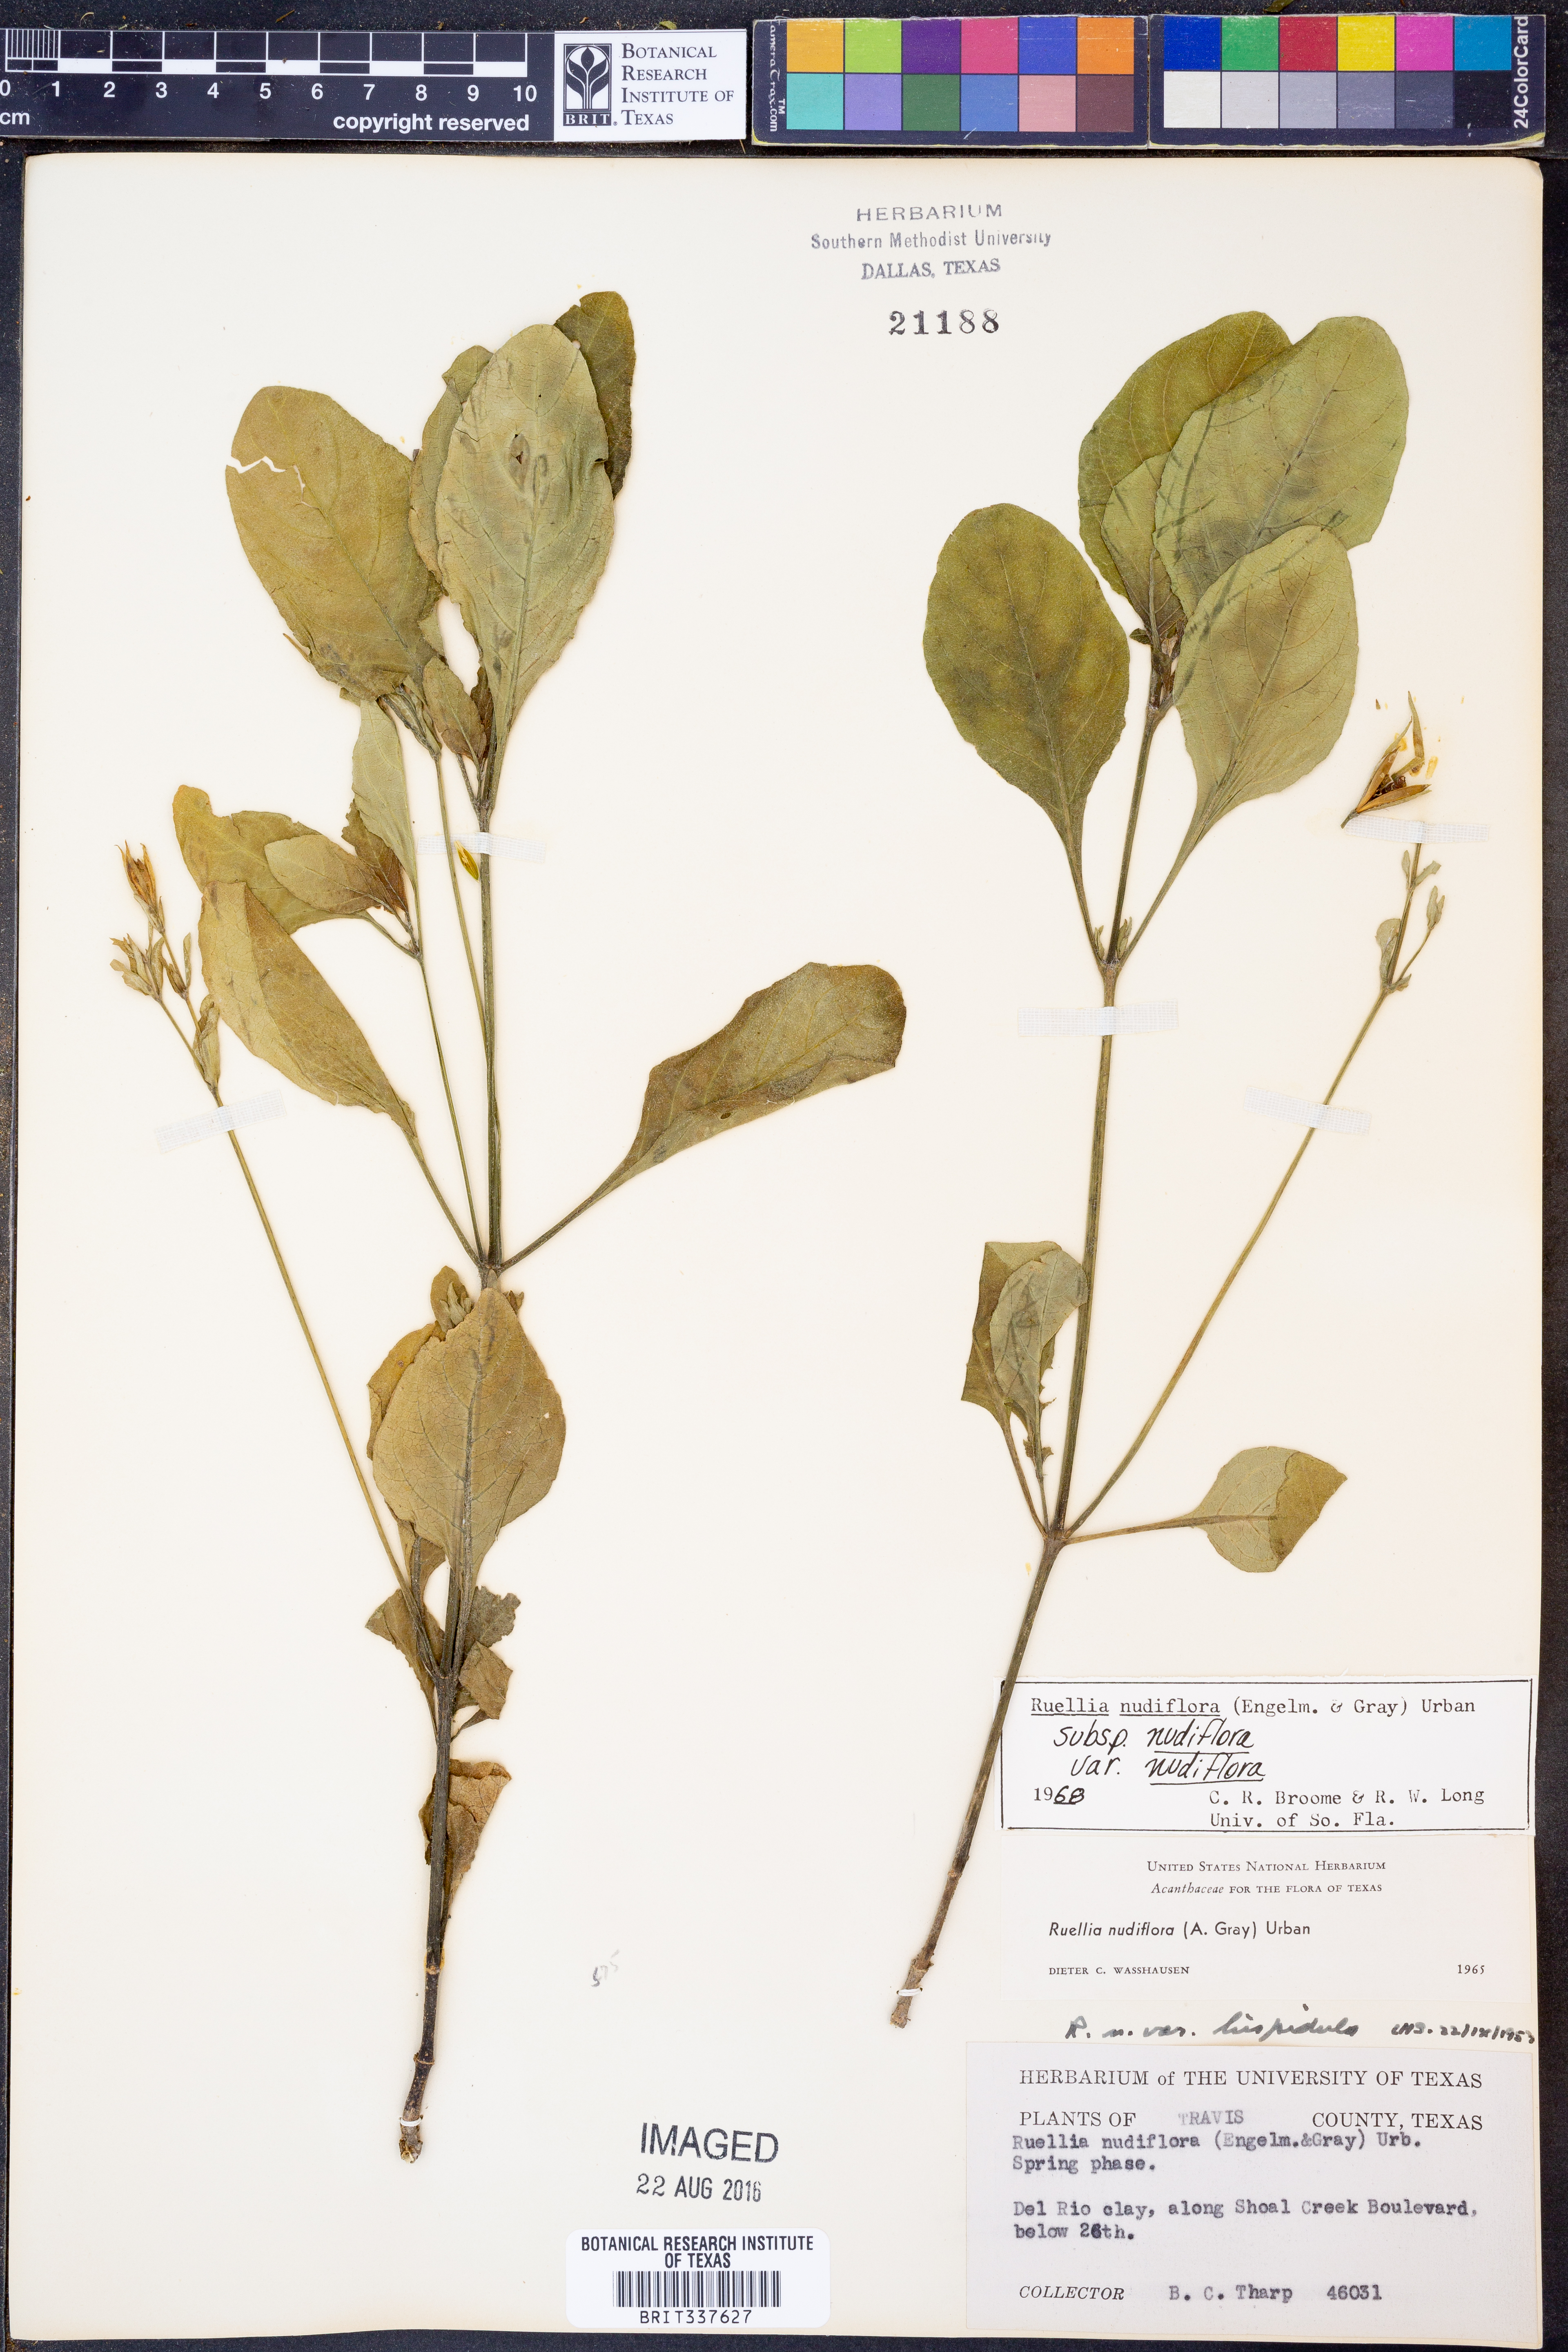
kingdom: Plantae
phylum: Tracheophyta
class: Magnoliopsida
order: Lamiales
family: Acanthaceae
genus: Ruellia
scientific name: Ruellia ciliatiflora
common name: Hairyflower wild petunia
